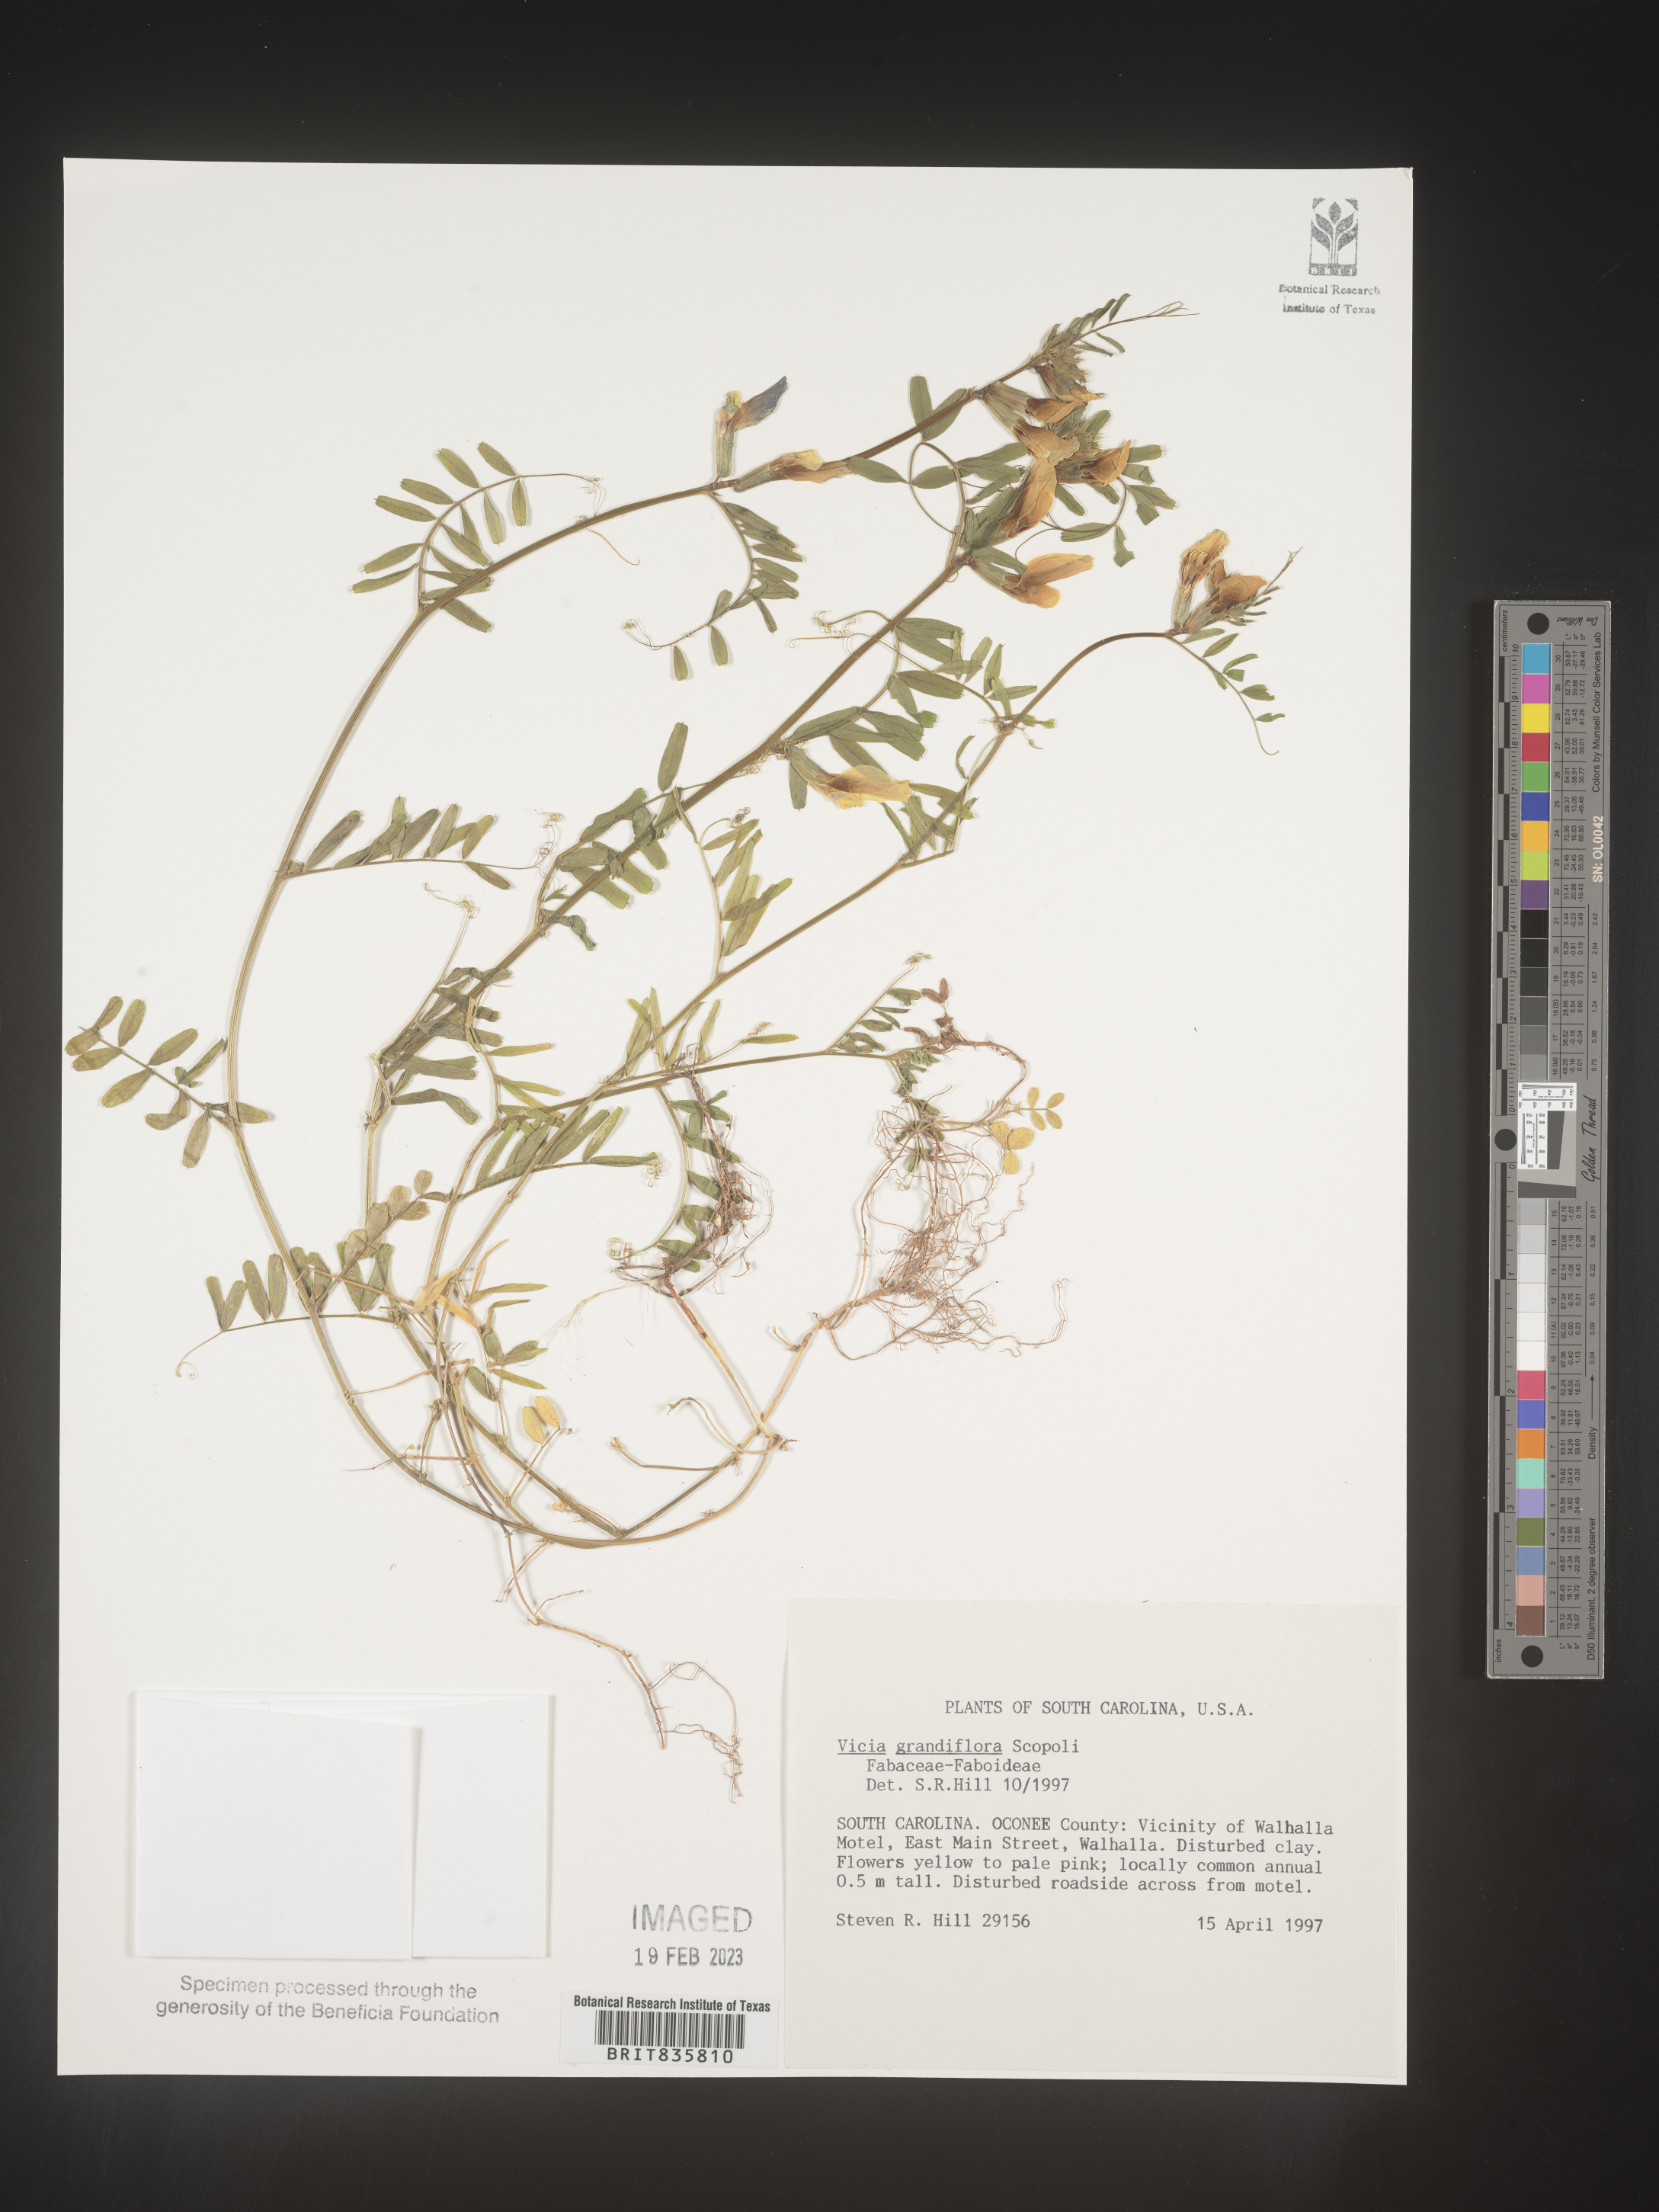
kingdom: Plantae
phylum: Tracheophyta
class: Magnoliopsida
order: Fabales
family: Fabaceae
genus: Vicia
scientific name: Vicia grandiflora
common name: Large yellow vetch
